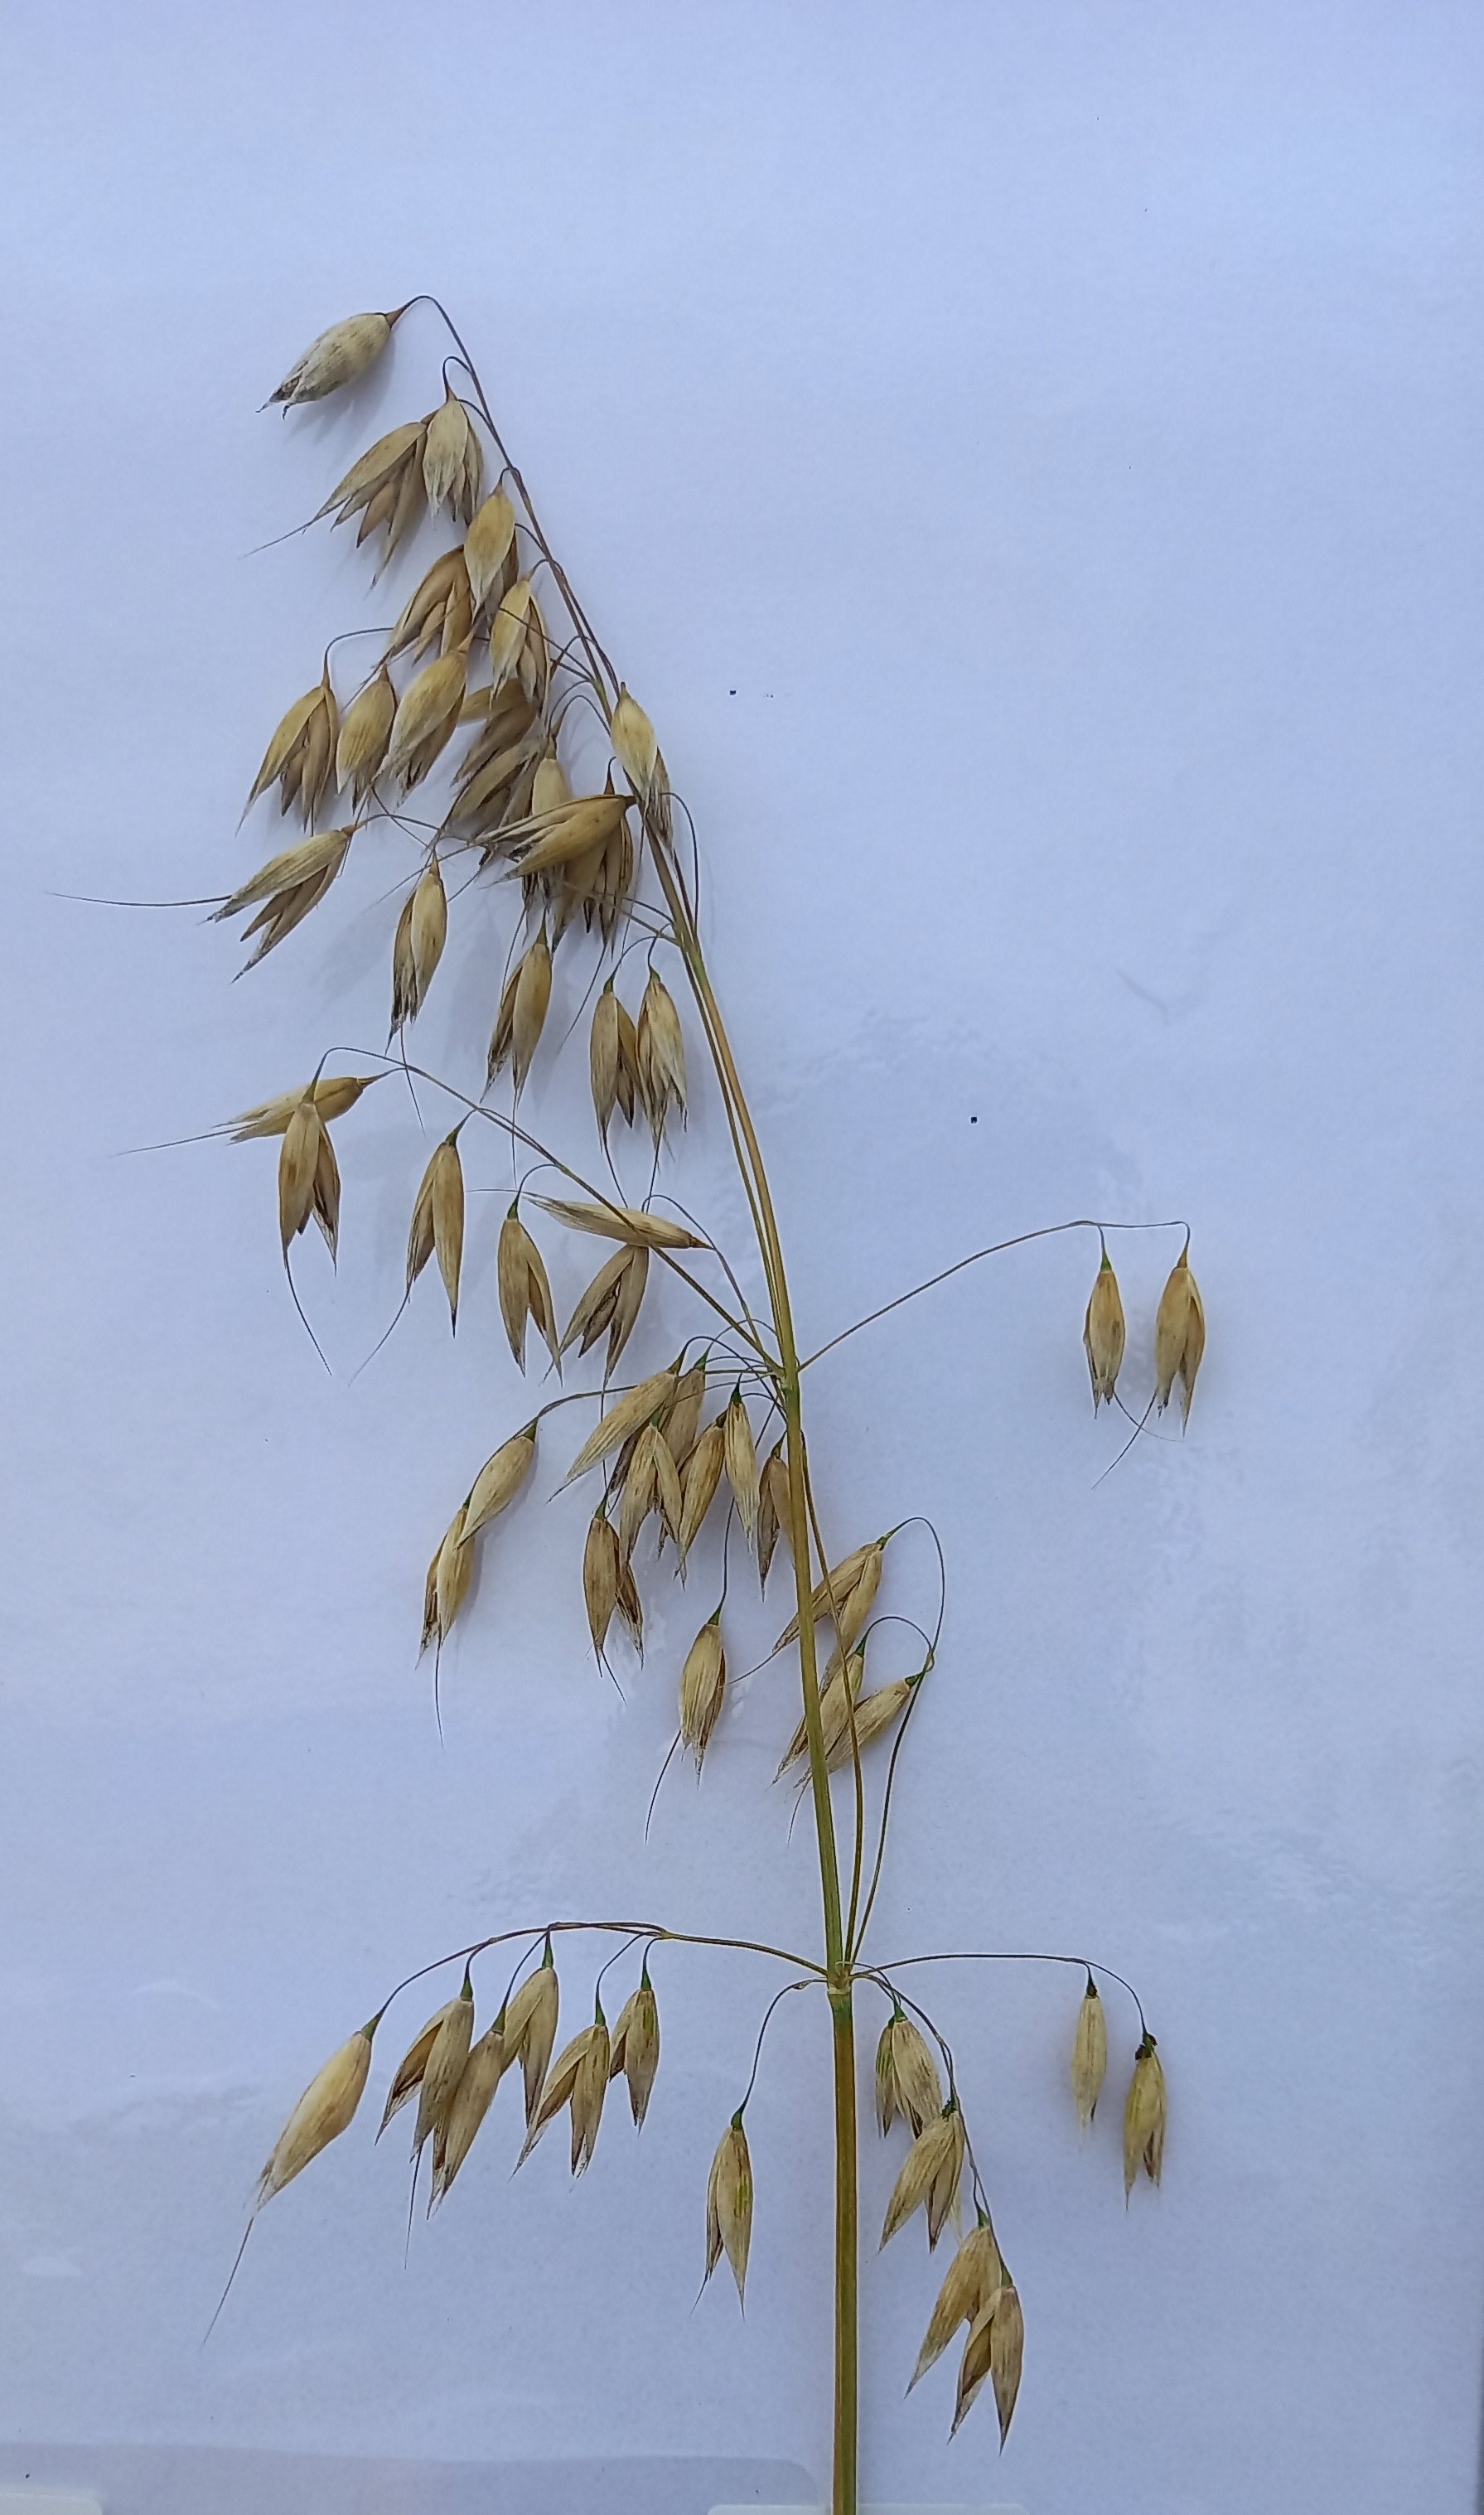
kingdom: Plantae
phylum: Tracheophyta
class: Liliopsida
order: Poales
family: Poaceae
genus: Avena
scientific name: Avena sativa
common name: Oat
